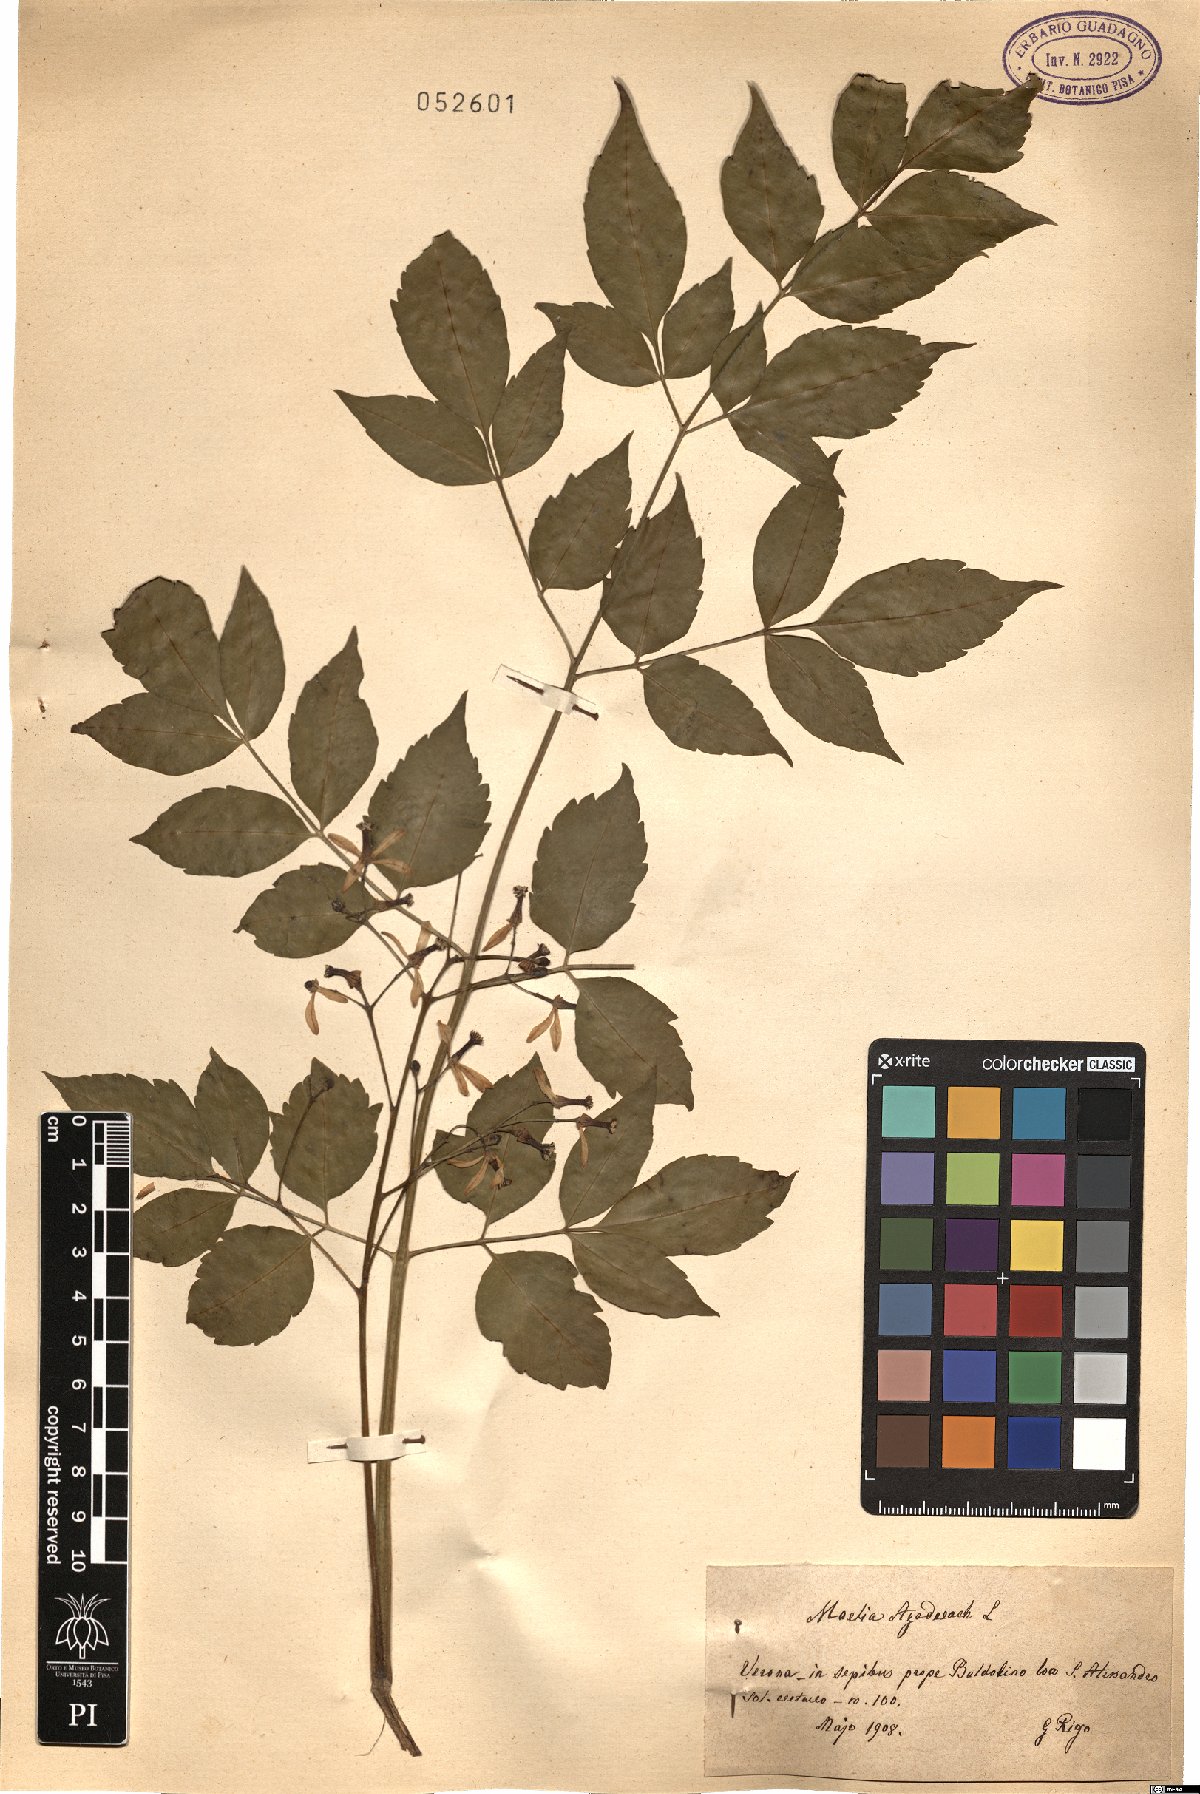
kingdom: Plantae
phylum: Tracheophyta
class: Magnoliopsida
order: Sapindales
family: Meliaceae
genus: Melia
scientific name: Melia azedarach
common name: Chinaberrytree
